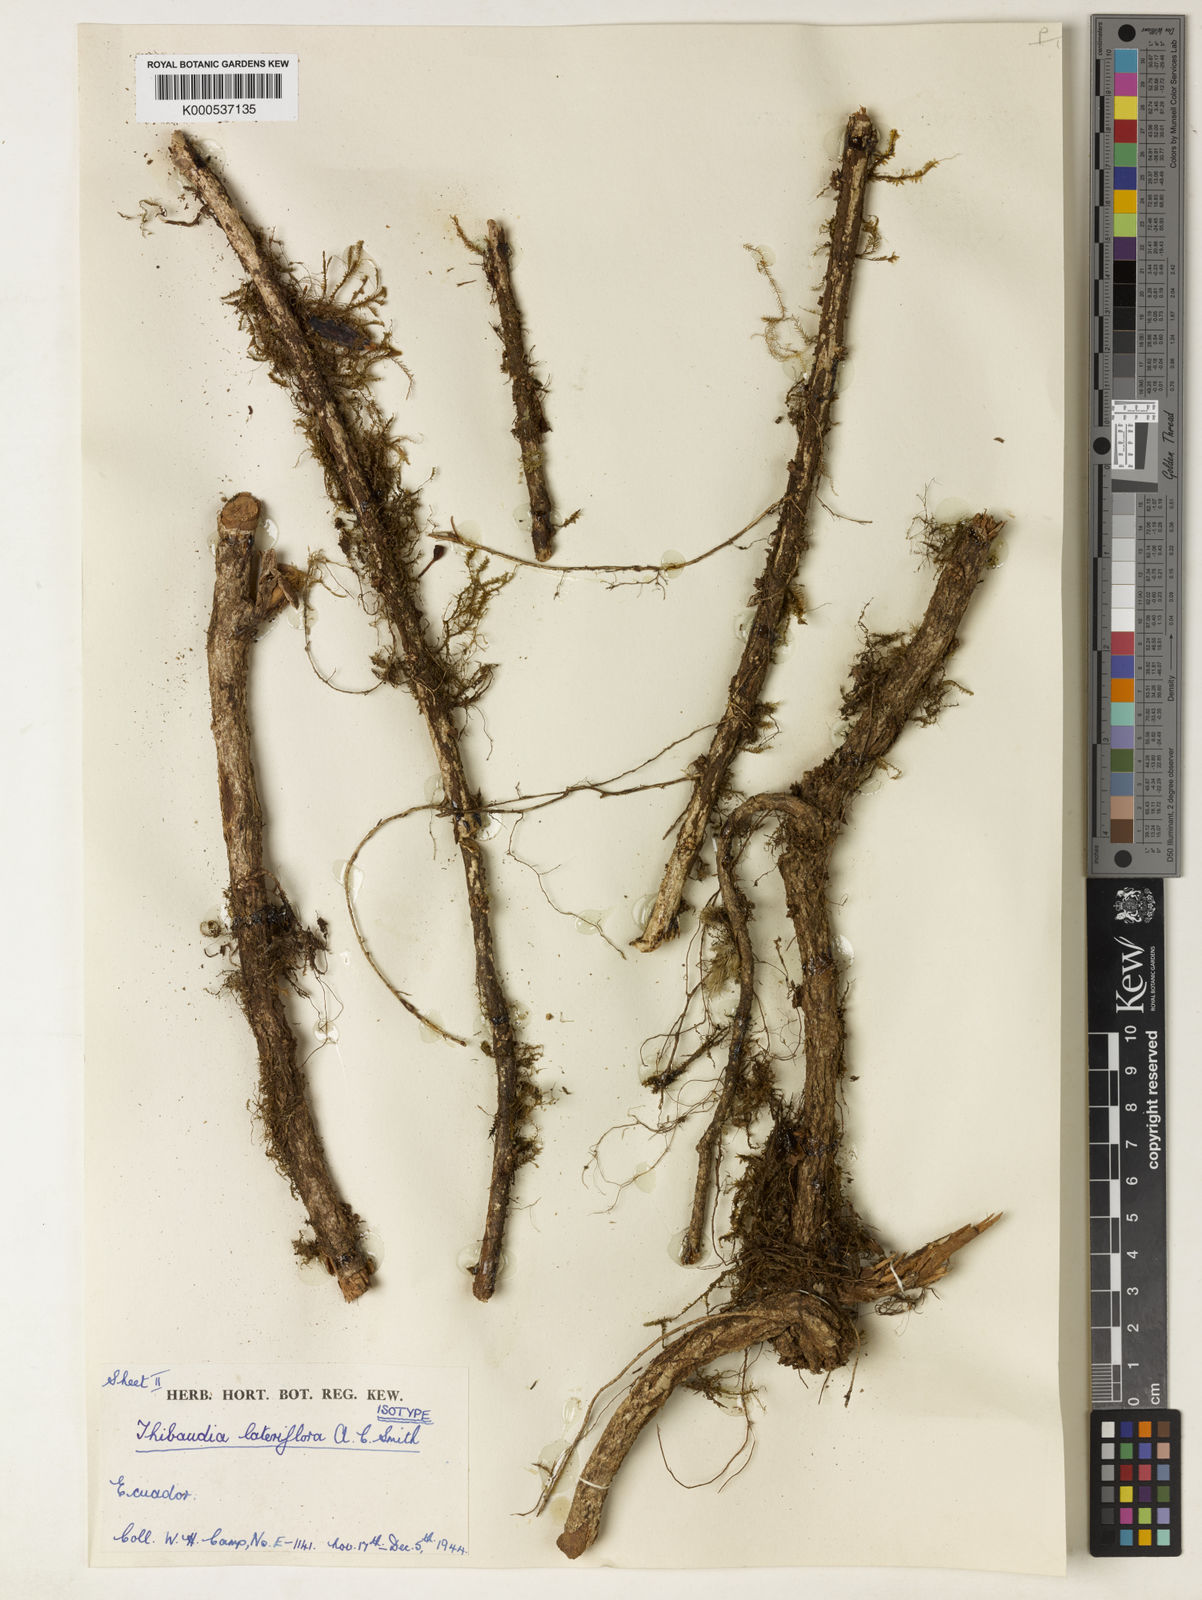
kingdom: Plantae
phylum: Tracheophyta
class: Magnoliopsida
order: Ericales
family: Ericaceae
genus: Thibaudia
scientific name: Thibaudia lateriflora
